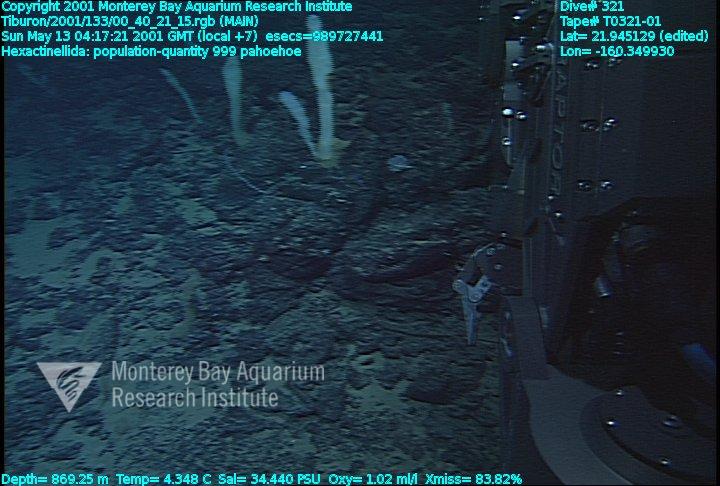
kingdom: Animalia
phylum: Porifera
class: Hexactinellida
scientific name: Hexactinellida
